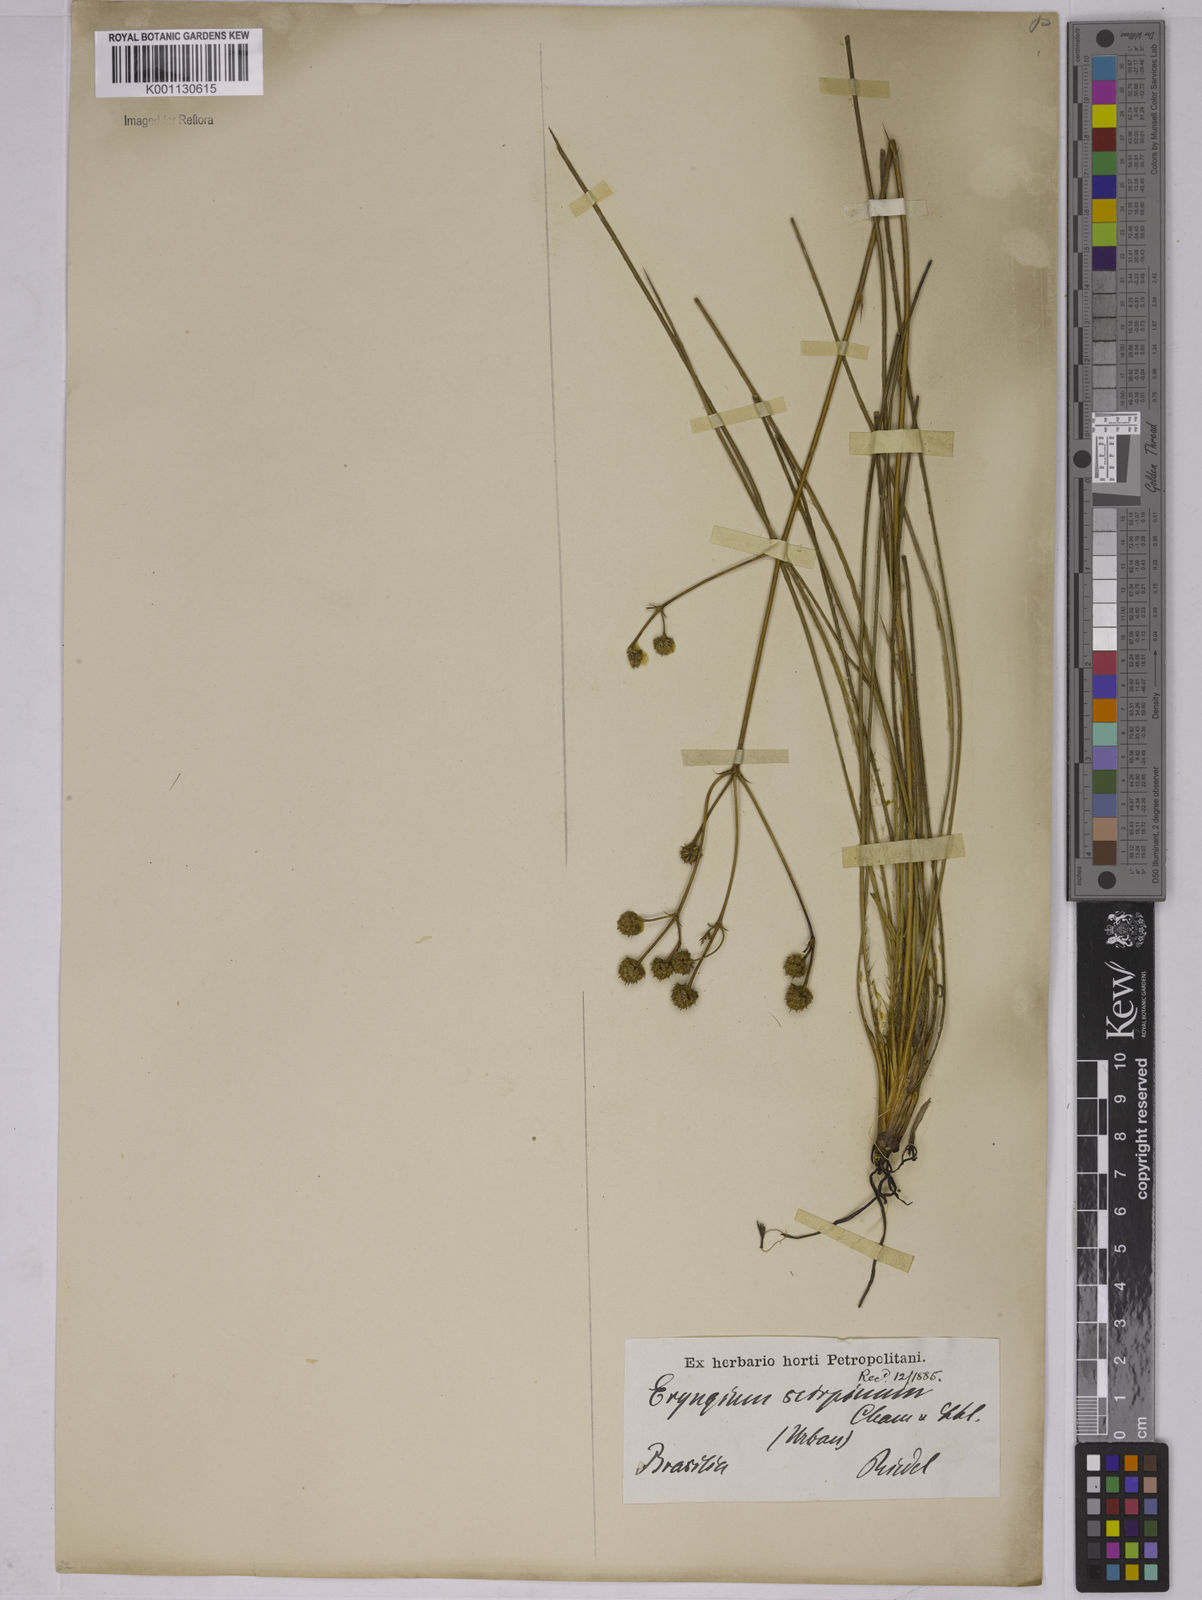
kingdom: Plantae
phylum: Tracheophyta
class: Magnoliopsida
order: Apiales
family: Apiaceae
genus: Eryngium
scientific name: Eryngium scirpinum
